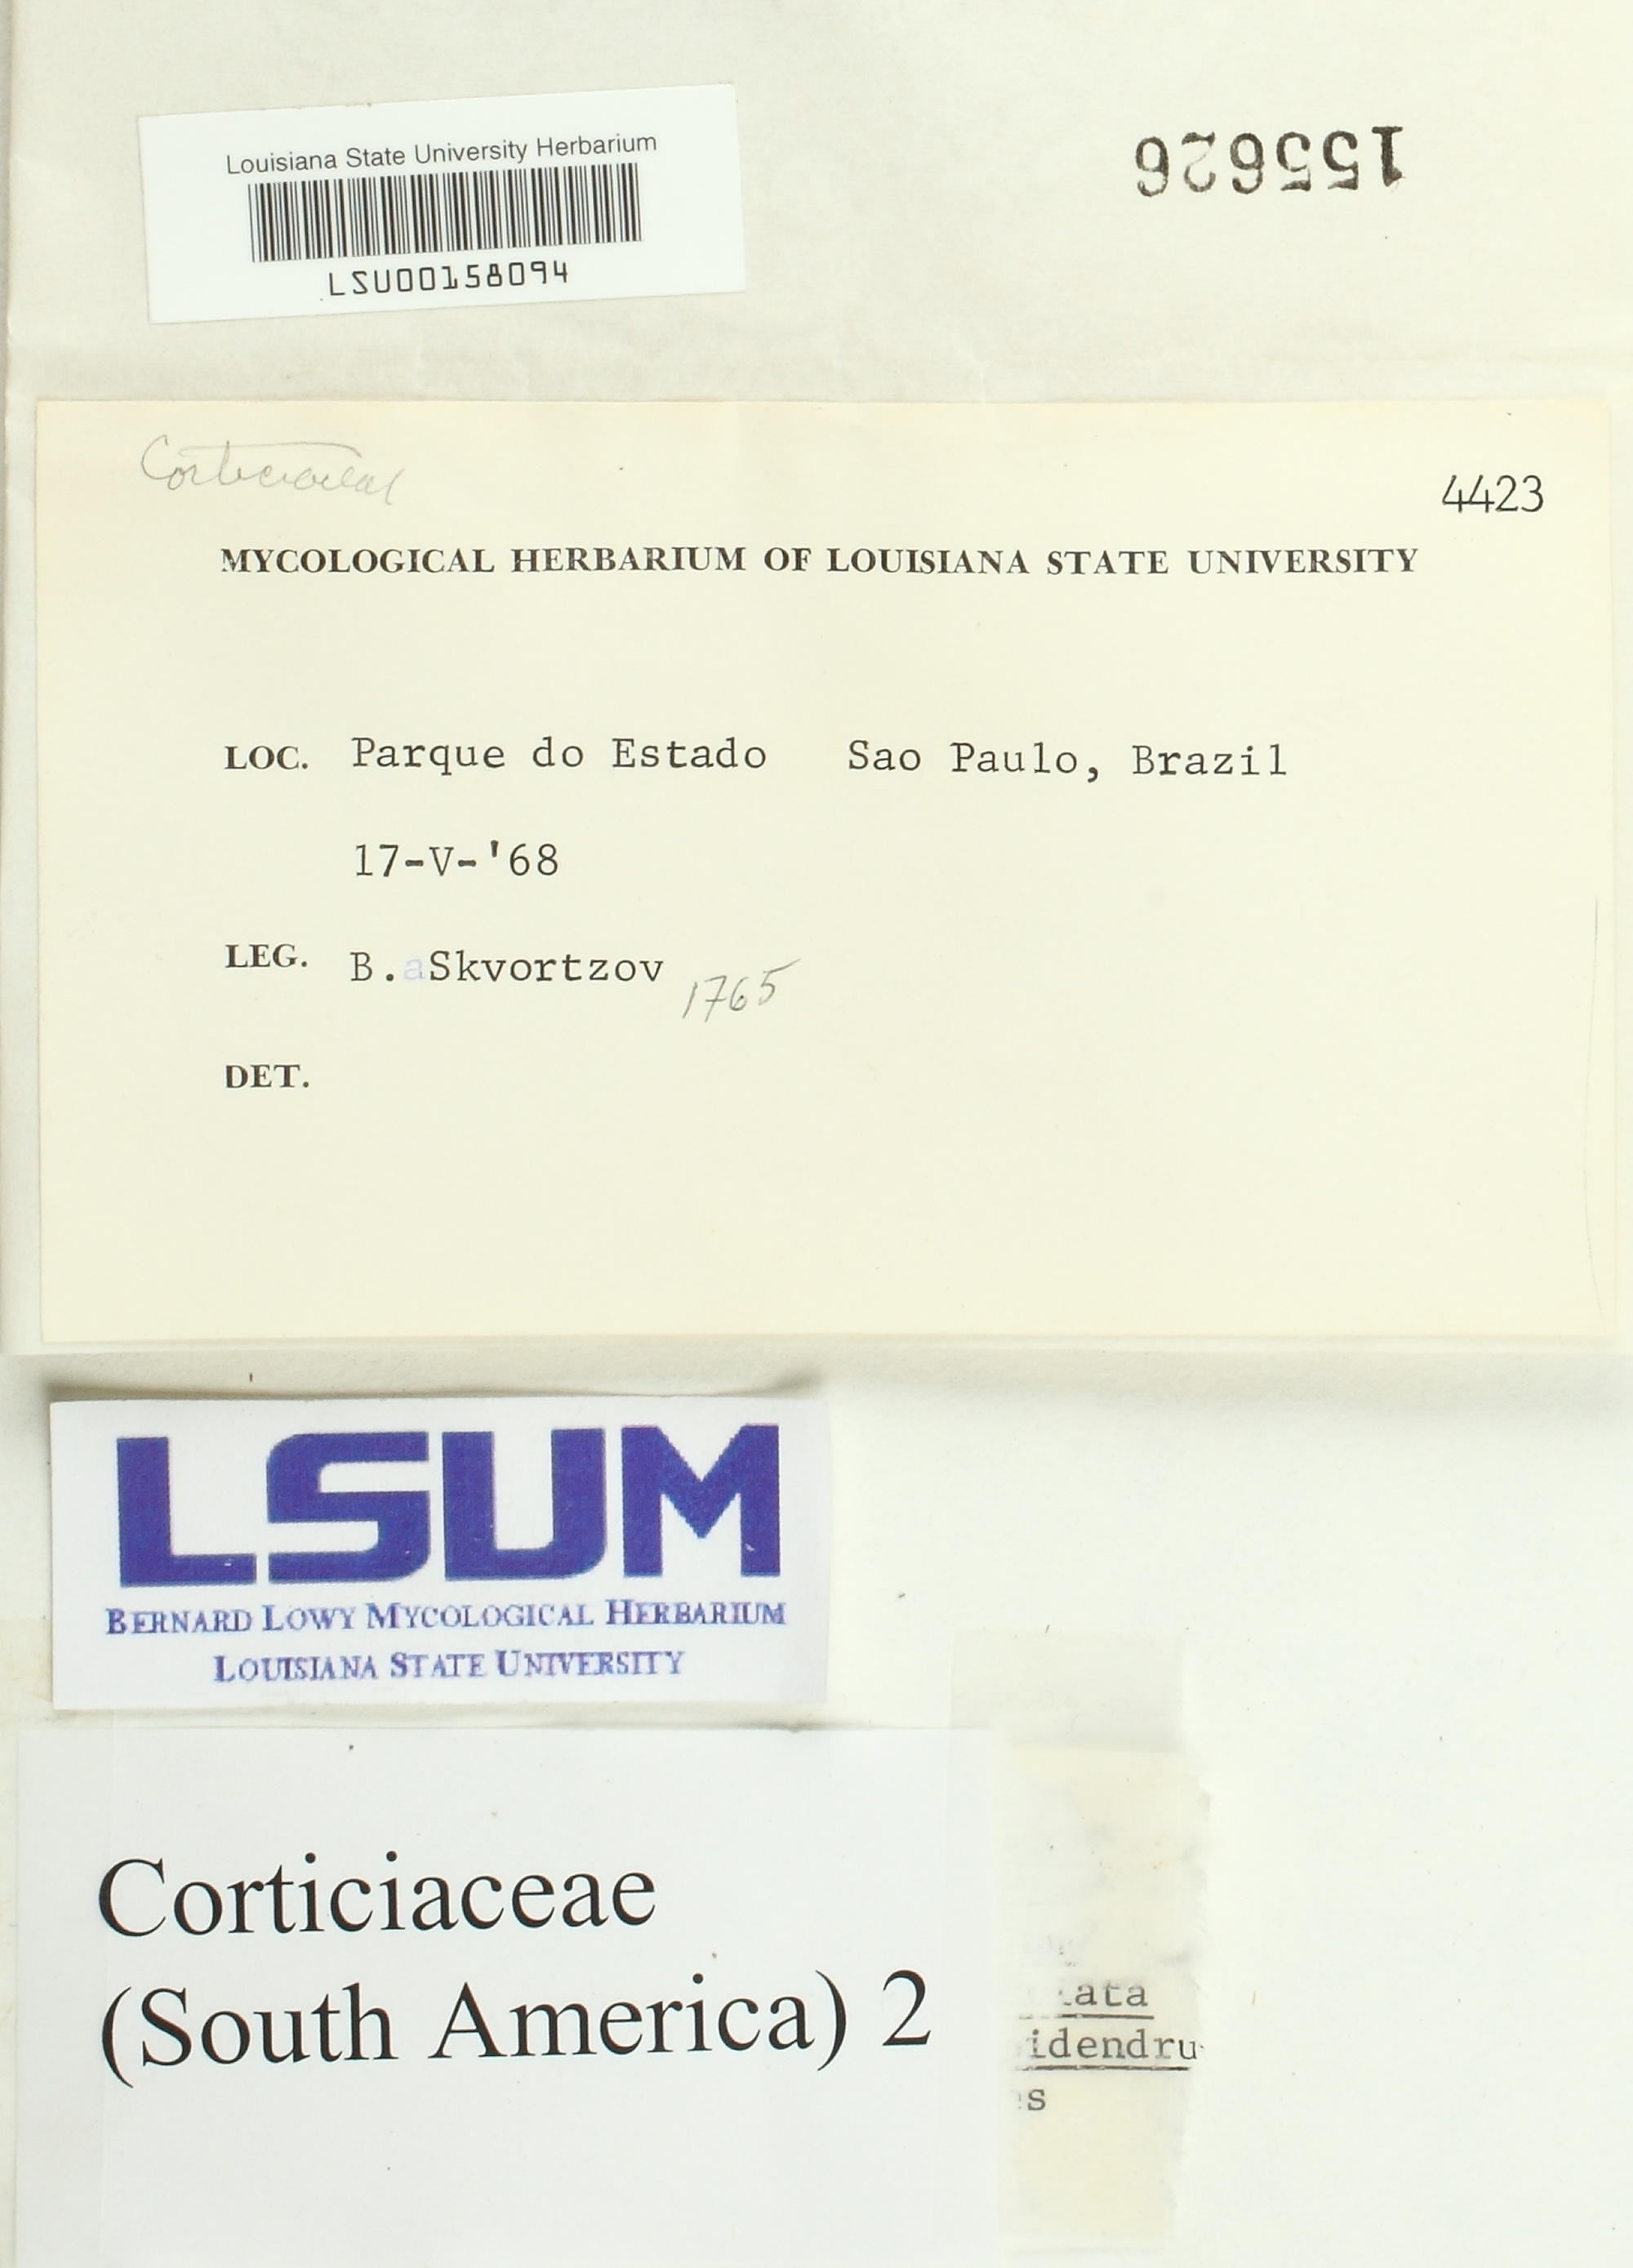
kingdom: Fungi
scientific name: Fungi
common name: Fungi
